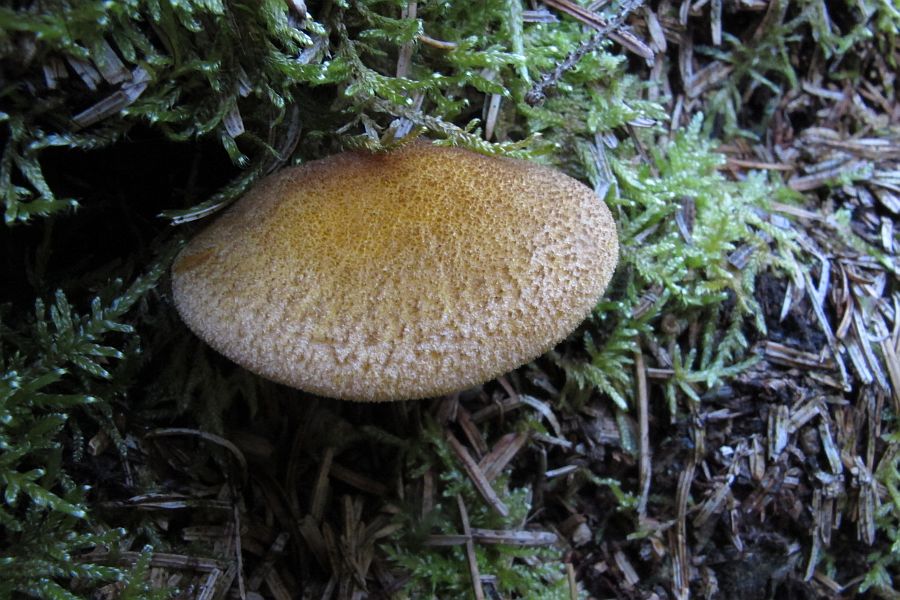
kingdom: Fungi
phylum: Basidiomycota
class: Agaricomycetes
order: Agaricales
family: Tricholomataceae
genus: Tricholomopsis
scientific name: Tricholomopsis decora
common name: sortskællet væbnerhat
